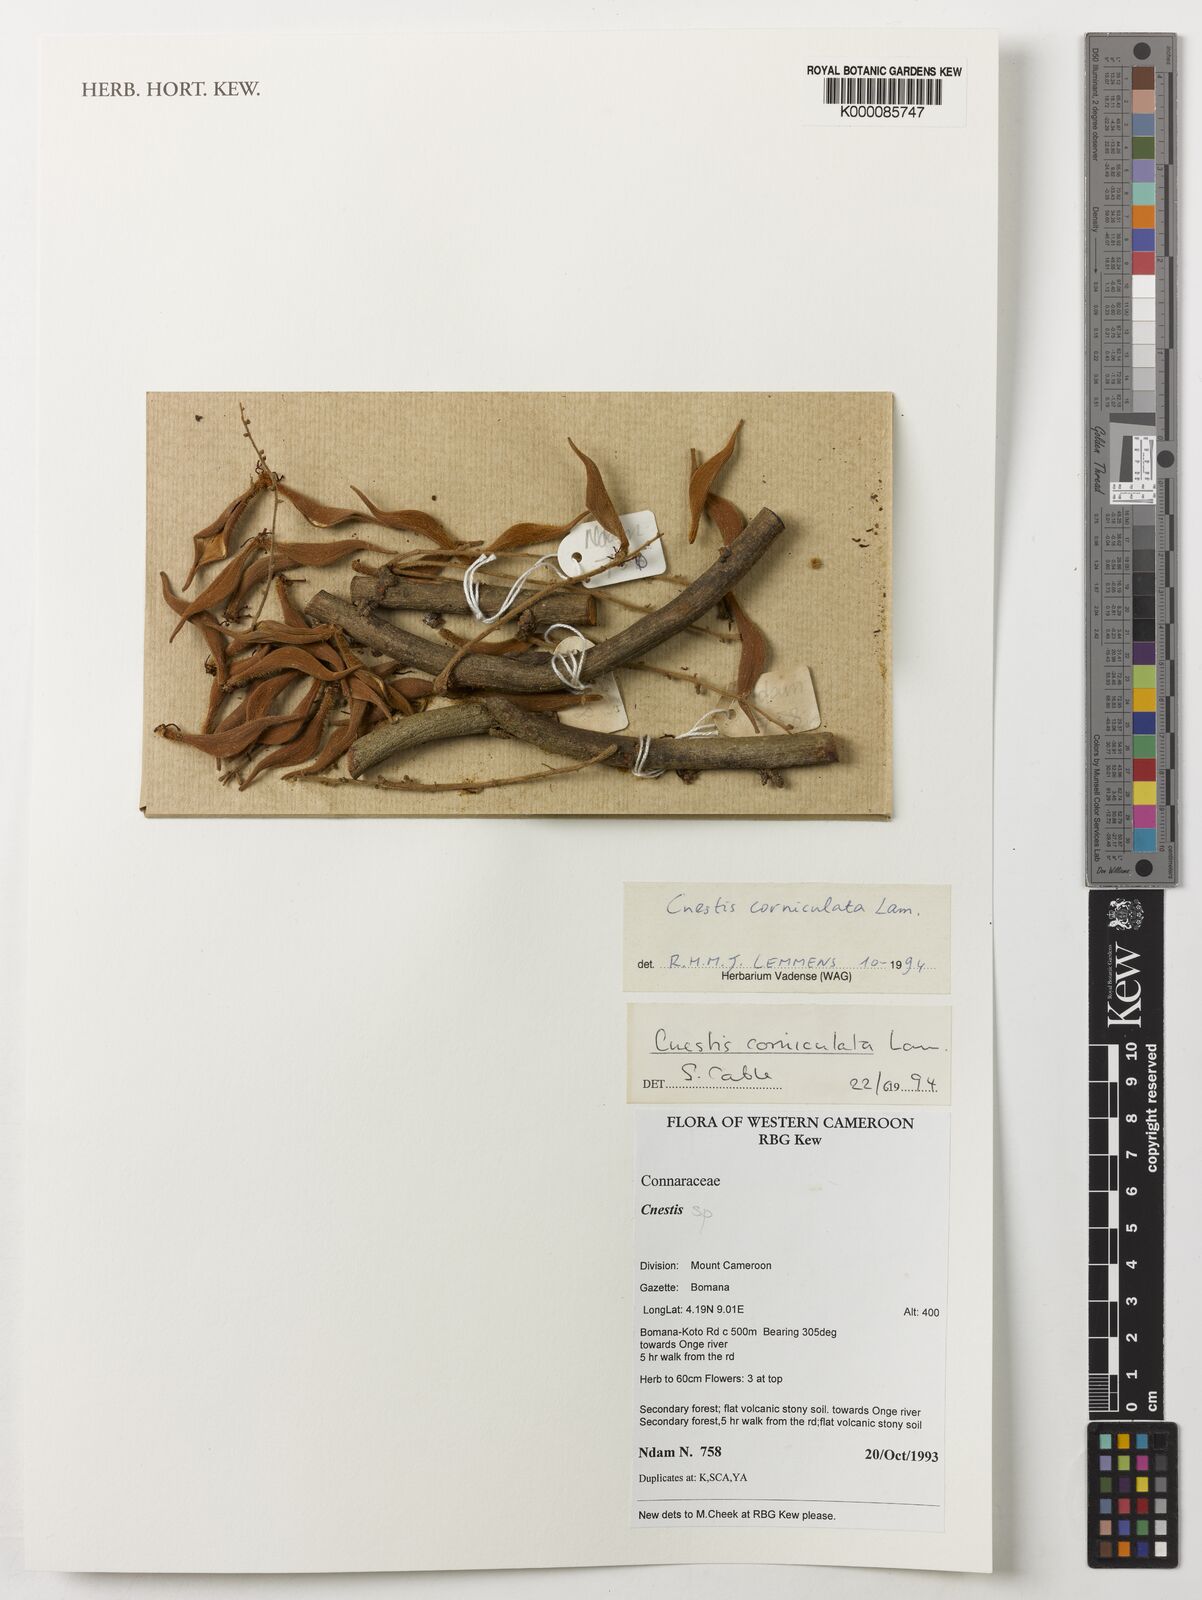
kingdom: Plantae
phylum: Tracheophyta
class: Magnoliopsida
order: Oxalidales
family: Connaraceae
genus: Cnestis
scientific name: Cnestis corniculata
